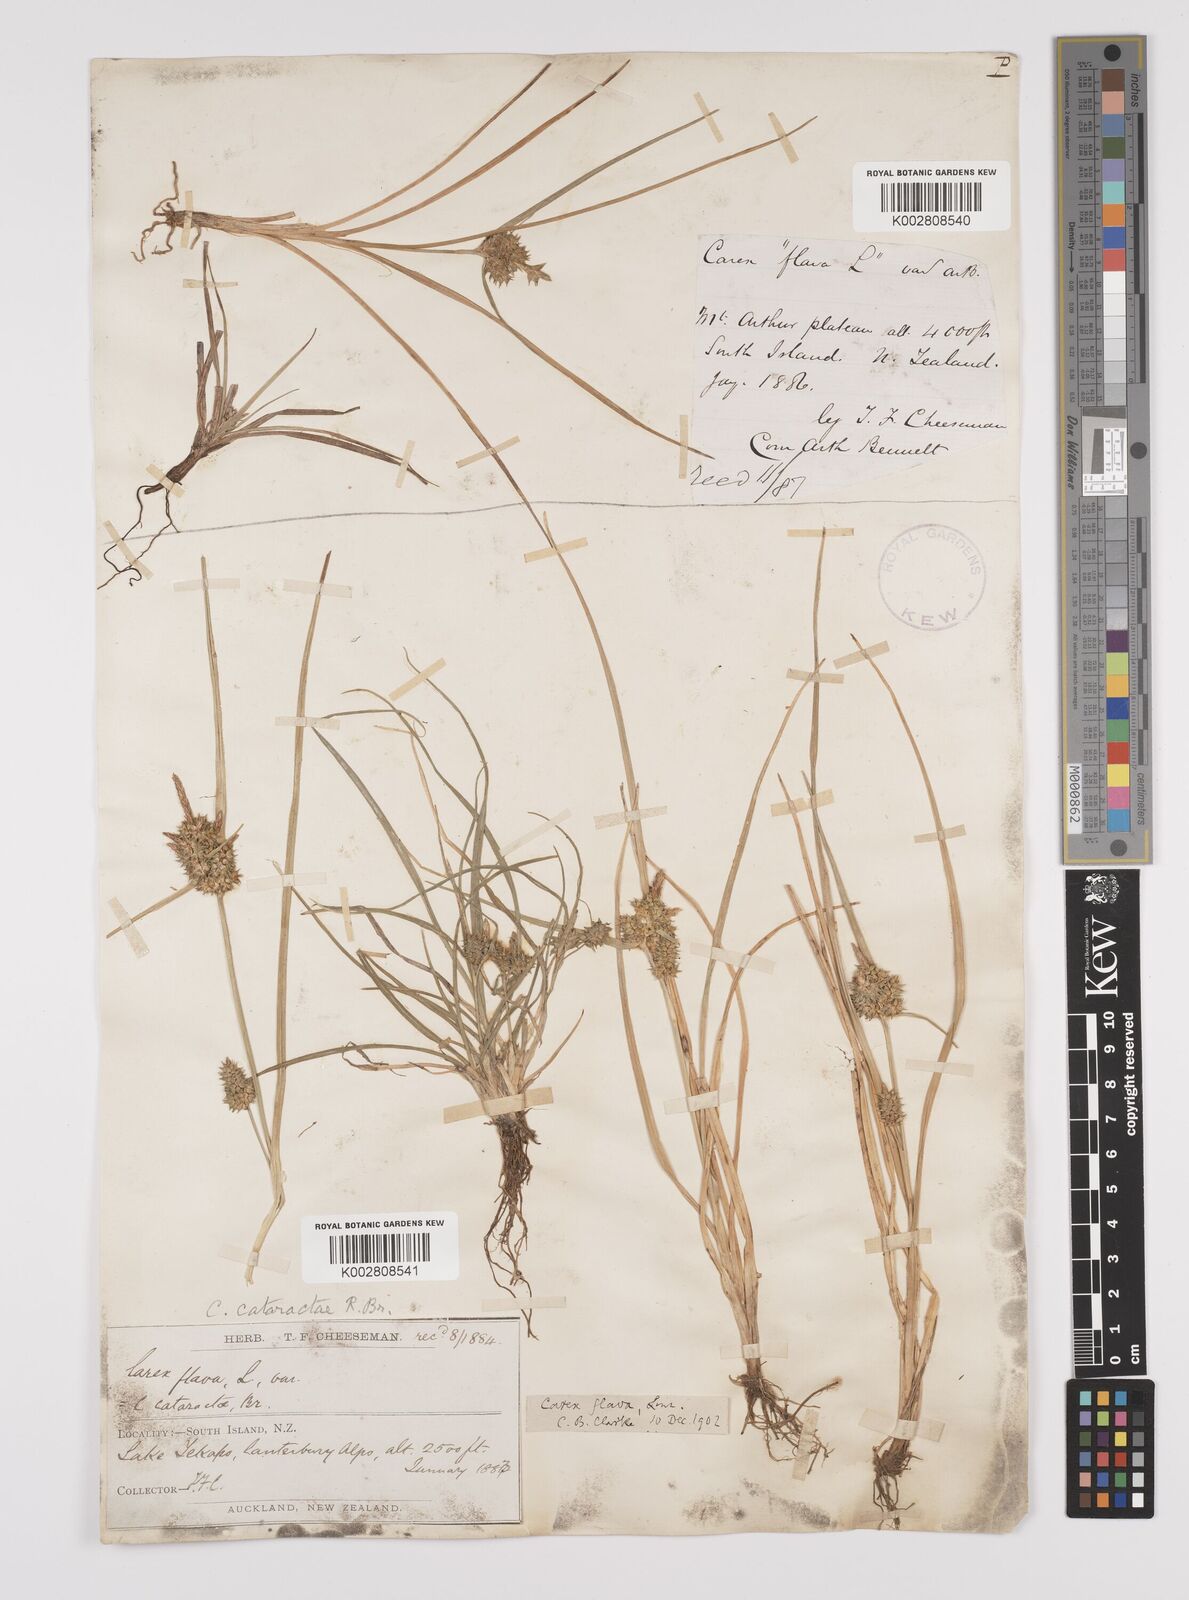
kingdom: Plantae
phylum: Tracheophyta
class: Liliopsida
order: Poales
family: Cyperaceae
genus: Carex
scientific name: Carex demissa
